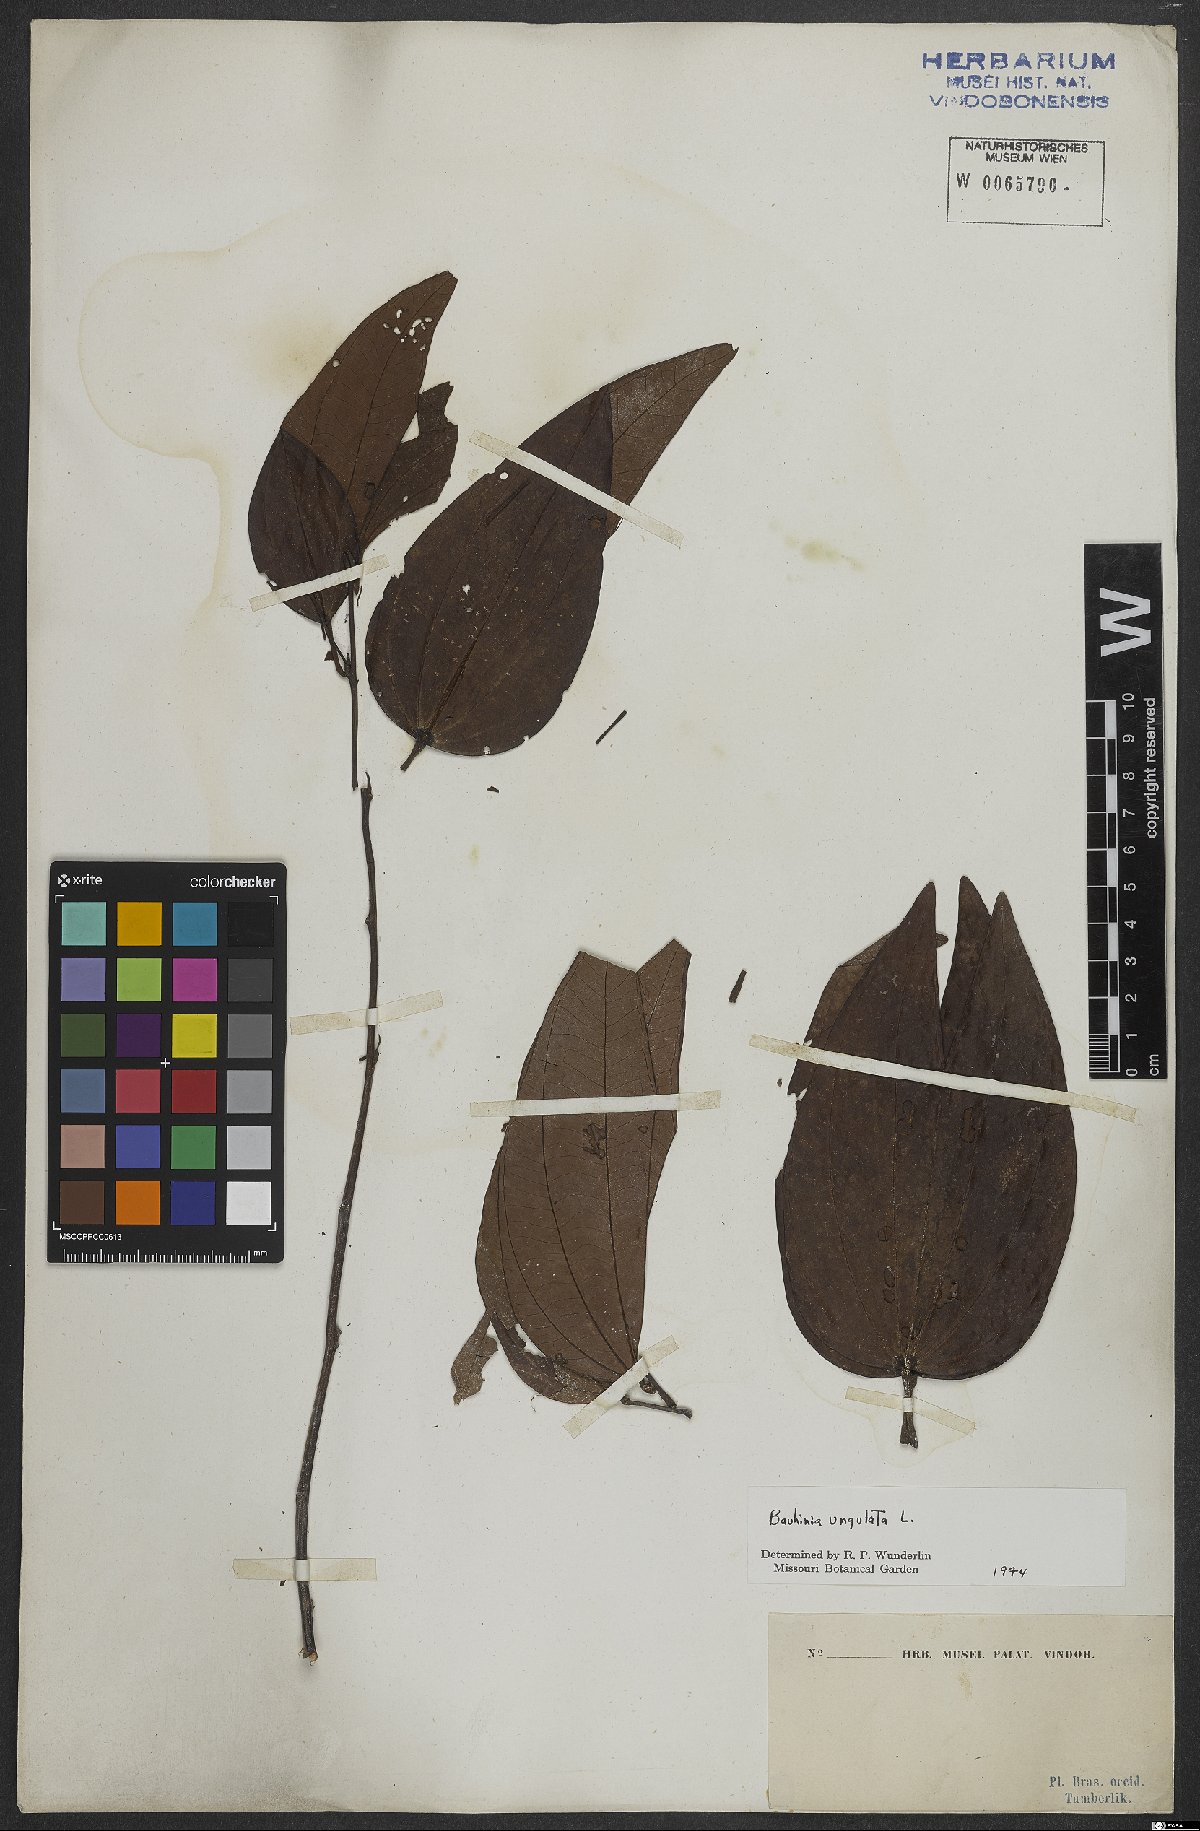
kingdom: Plantae
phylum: Tracheophyta
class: Magnoliopsida
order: Fabales
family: Fabaceae
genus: Bauhinia
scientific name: Bauhinia ungulata
